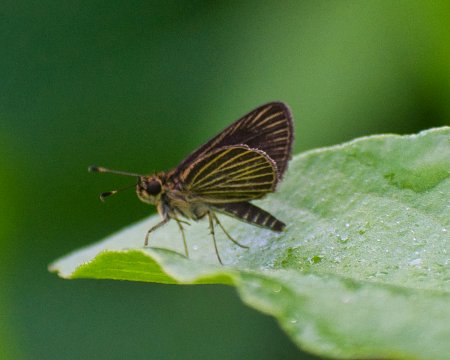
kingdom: Animalia
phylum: Arthropoda
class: Insecta
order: Lepidoptera
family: Hesperiidae
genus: Callimormus
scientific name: Callimormus radiola
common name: Radiant Skipper
